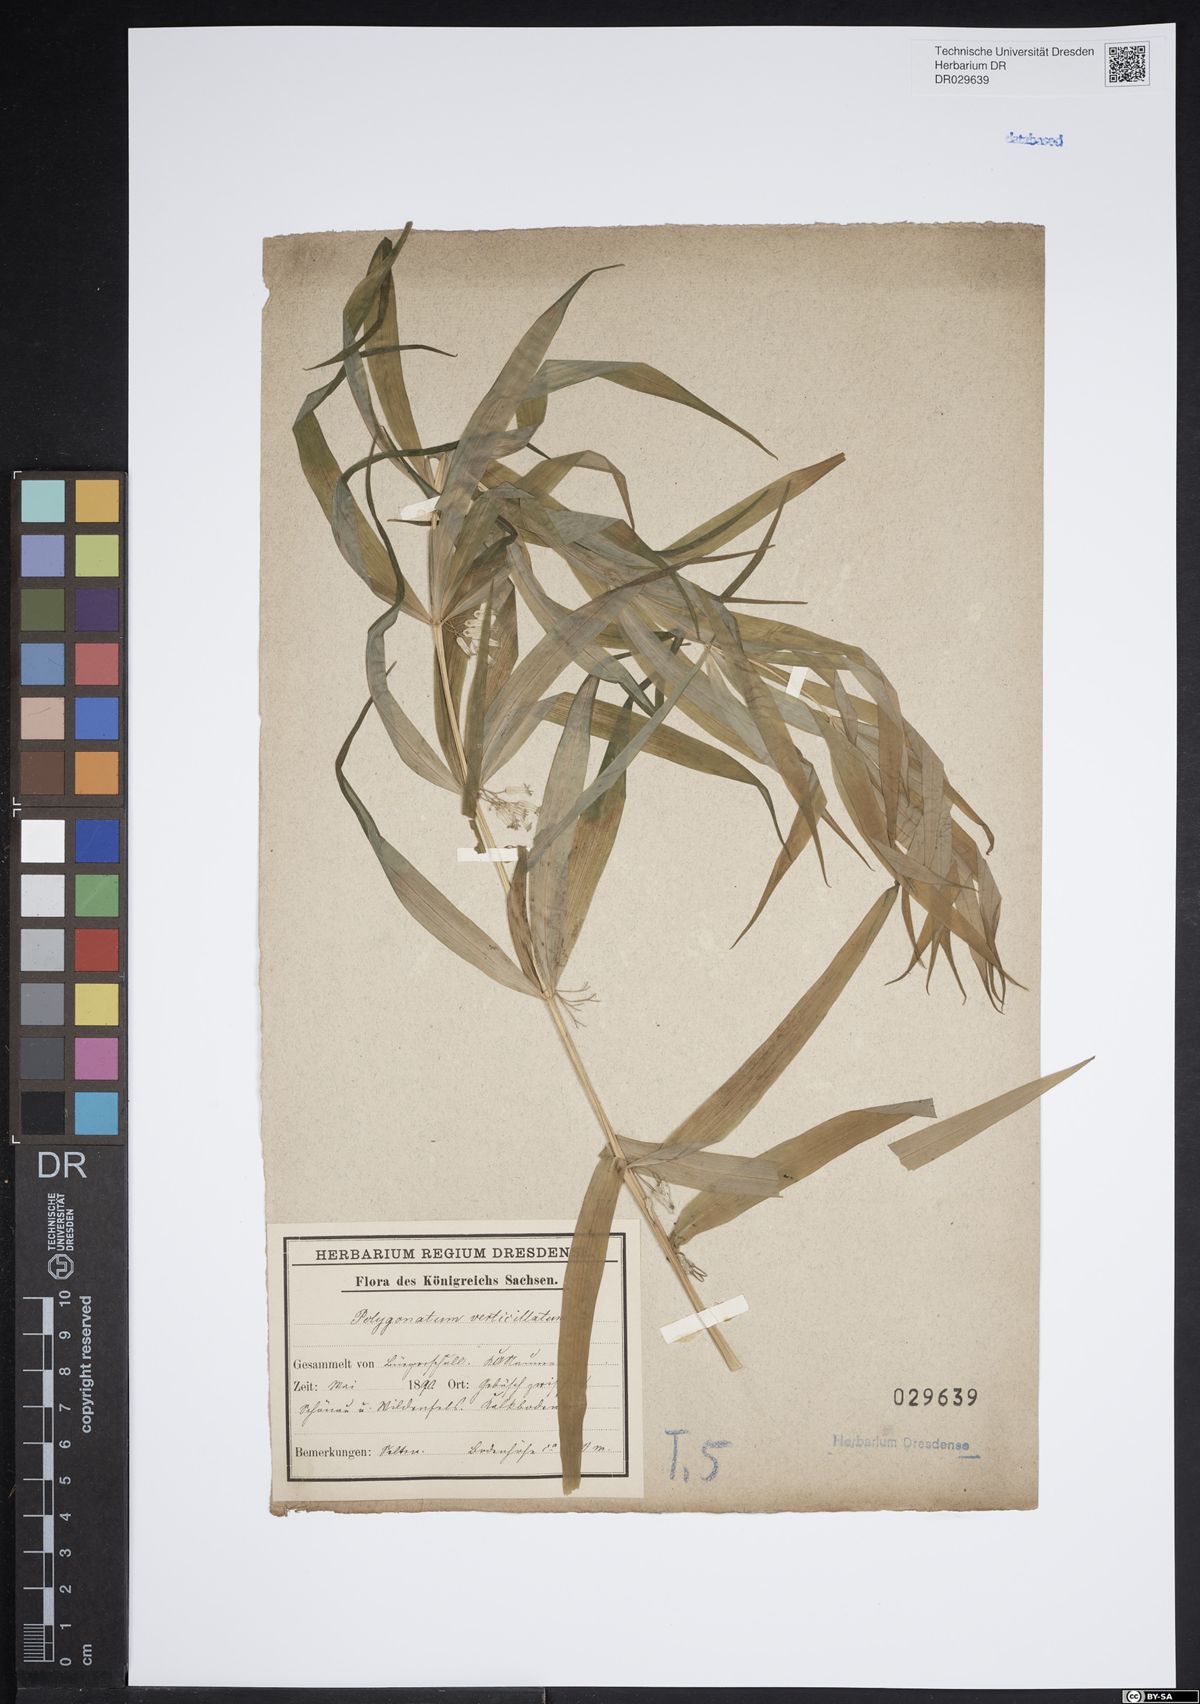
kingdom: Plantae
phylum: Tracheophyta
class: Liliopsida
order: Asparagales
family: Asparagaceae
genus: Polygonatum
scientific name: Polygonatum verticillatum
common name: Whorled solomon's-seal
